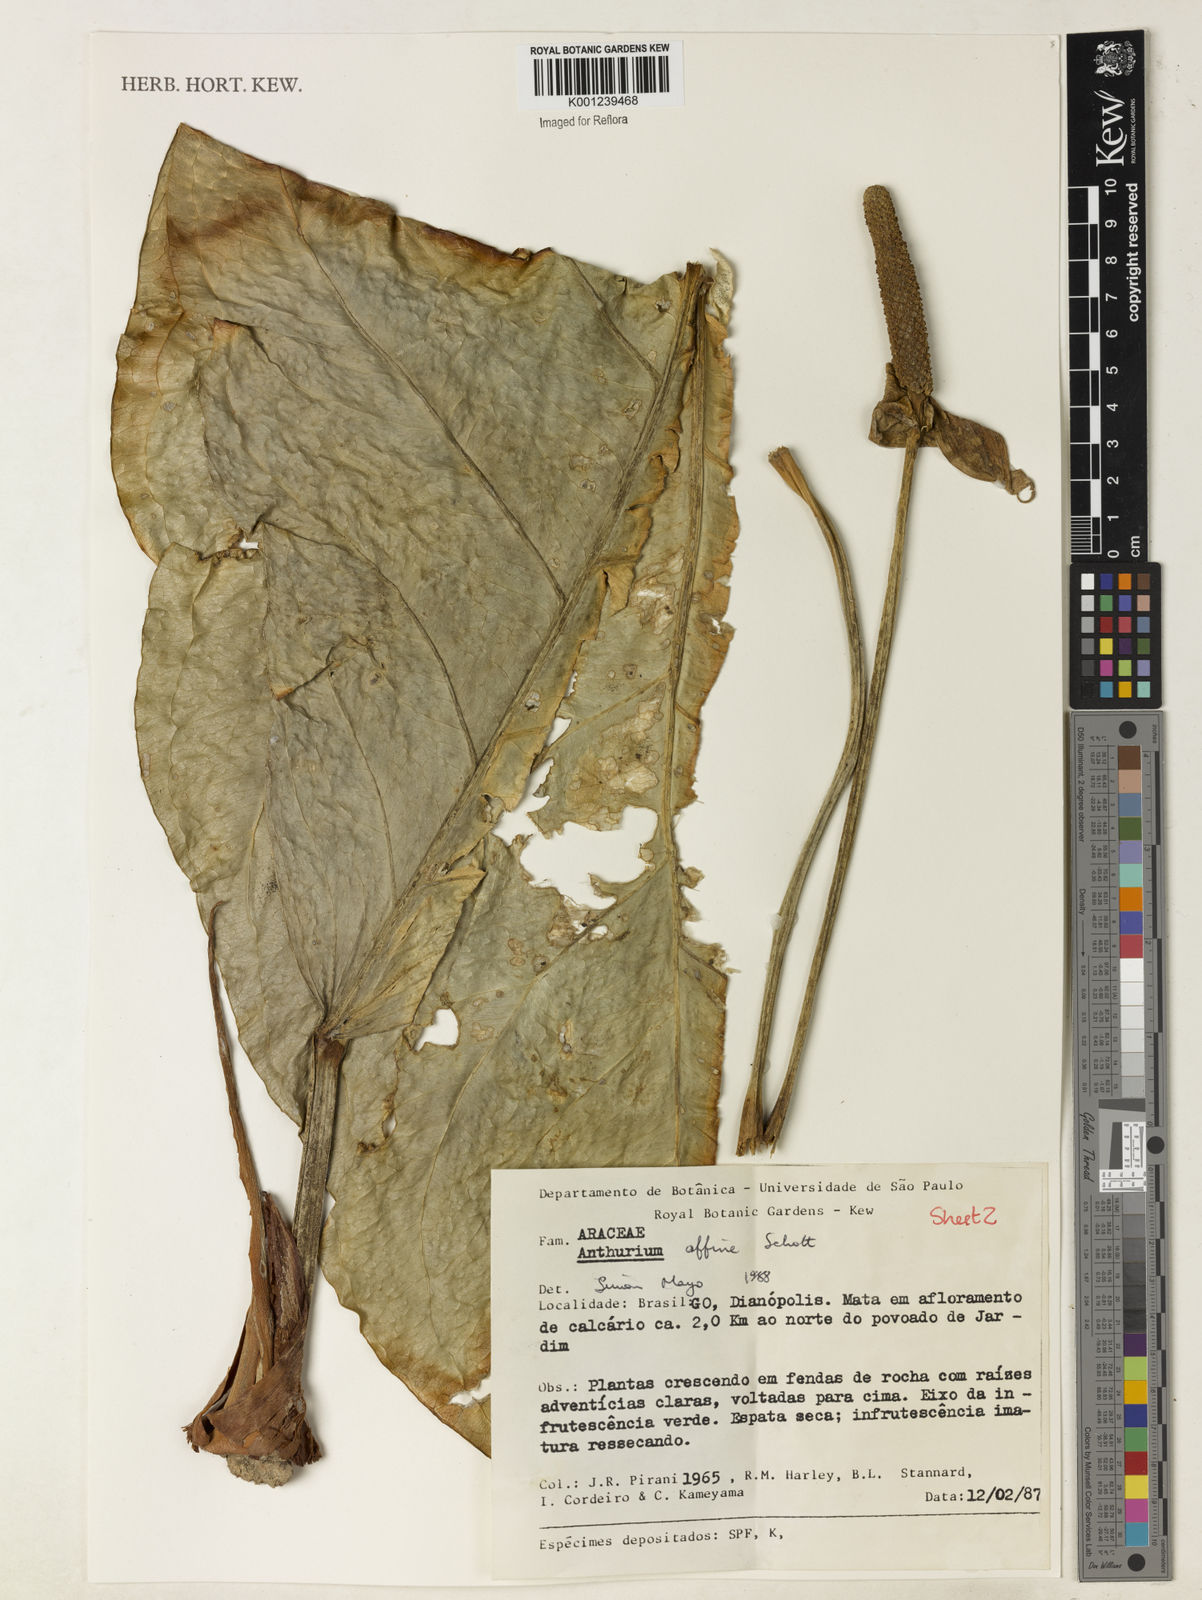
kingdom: Plantae
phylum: Tracheophyta
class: Liliopsida
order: Alismatales
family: Araceae
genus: Anthurium
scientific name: Anthurium affine
